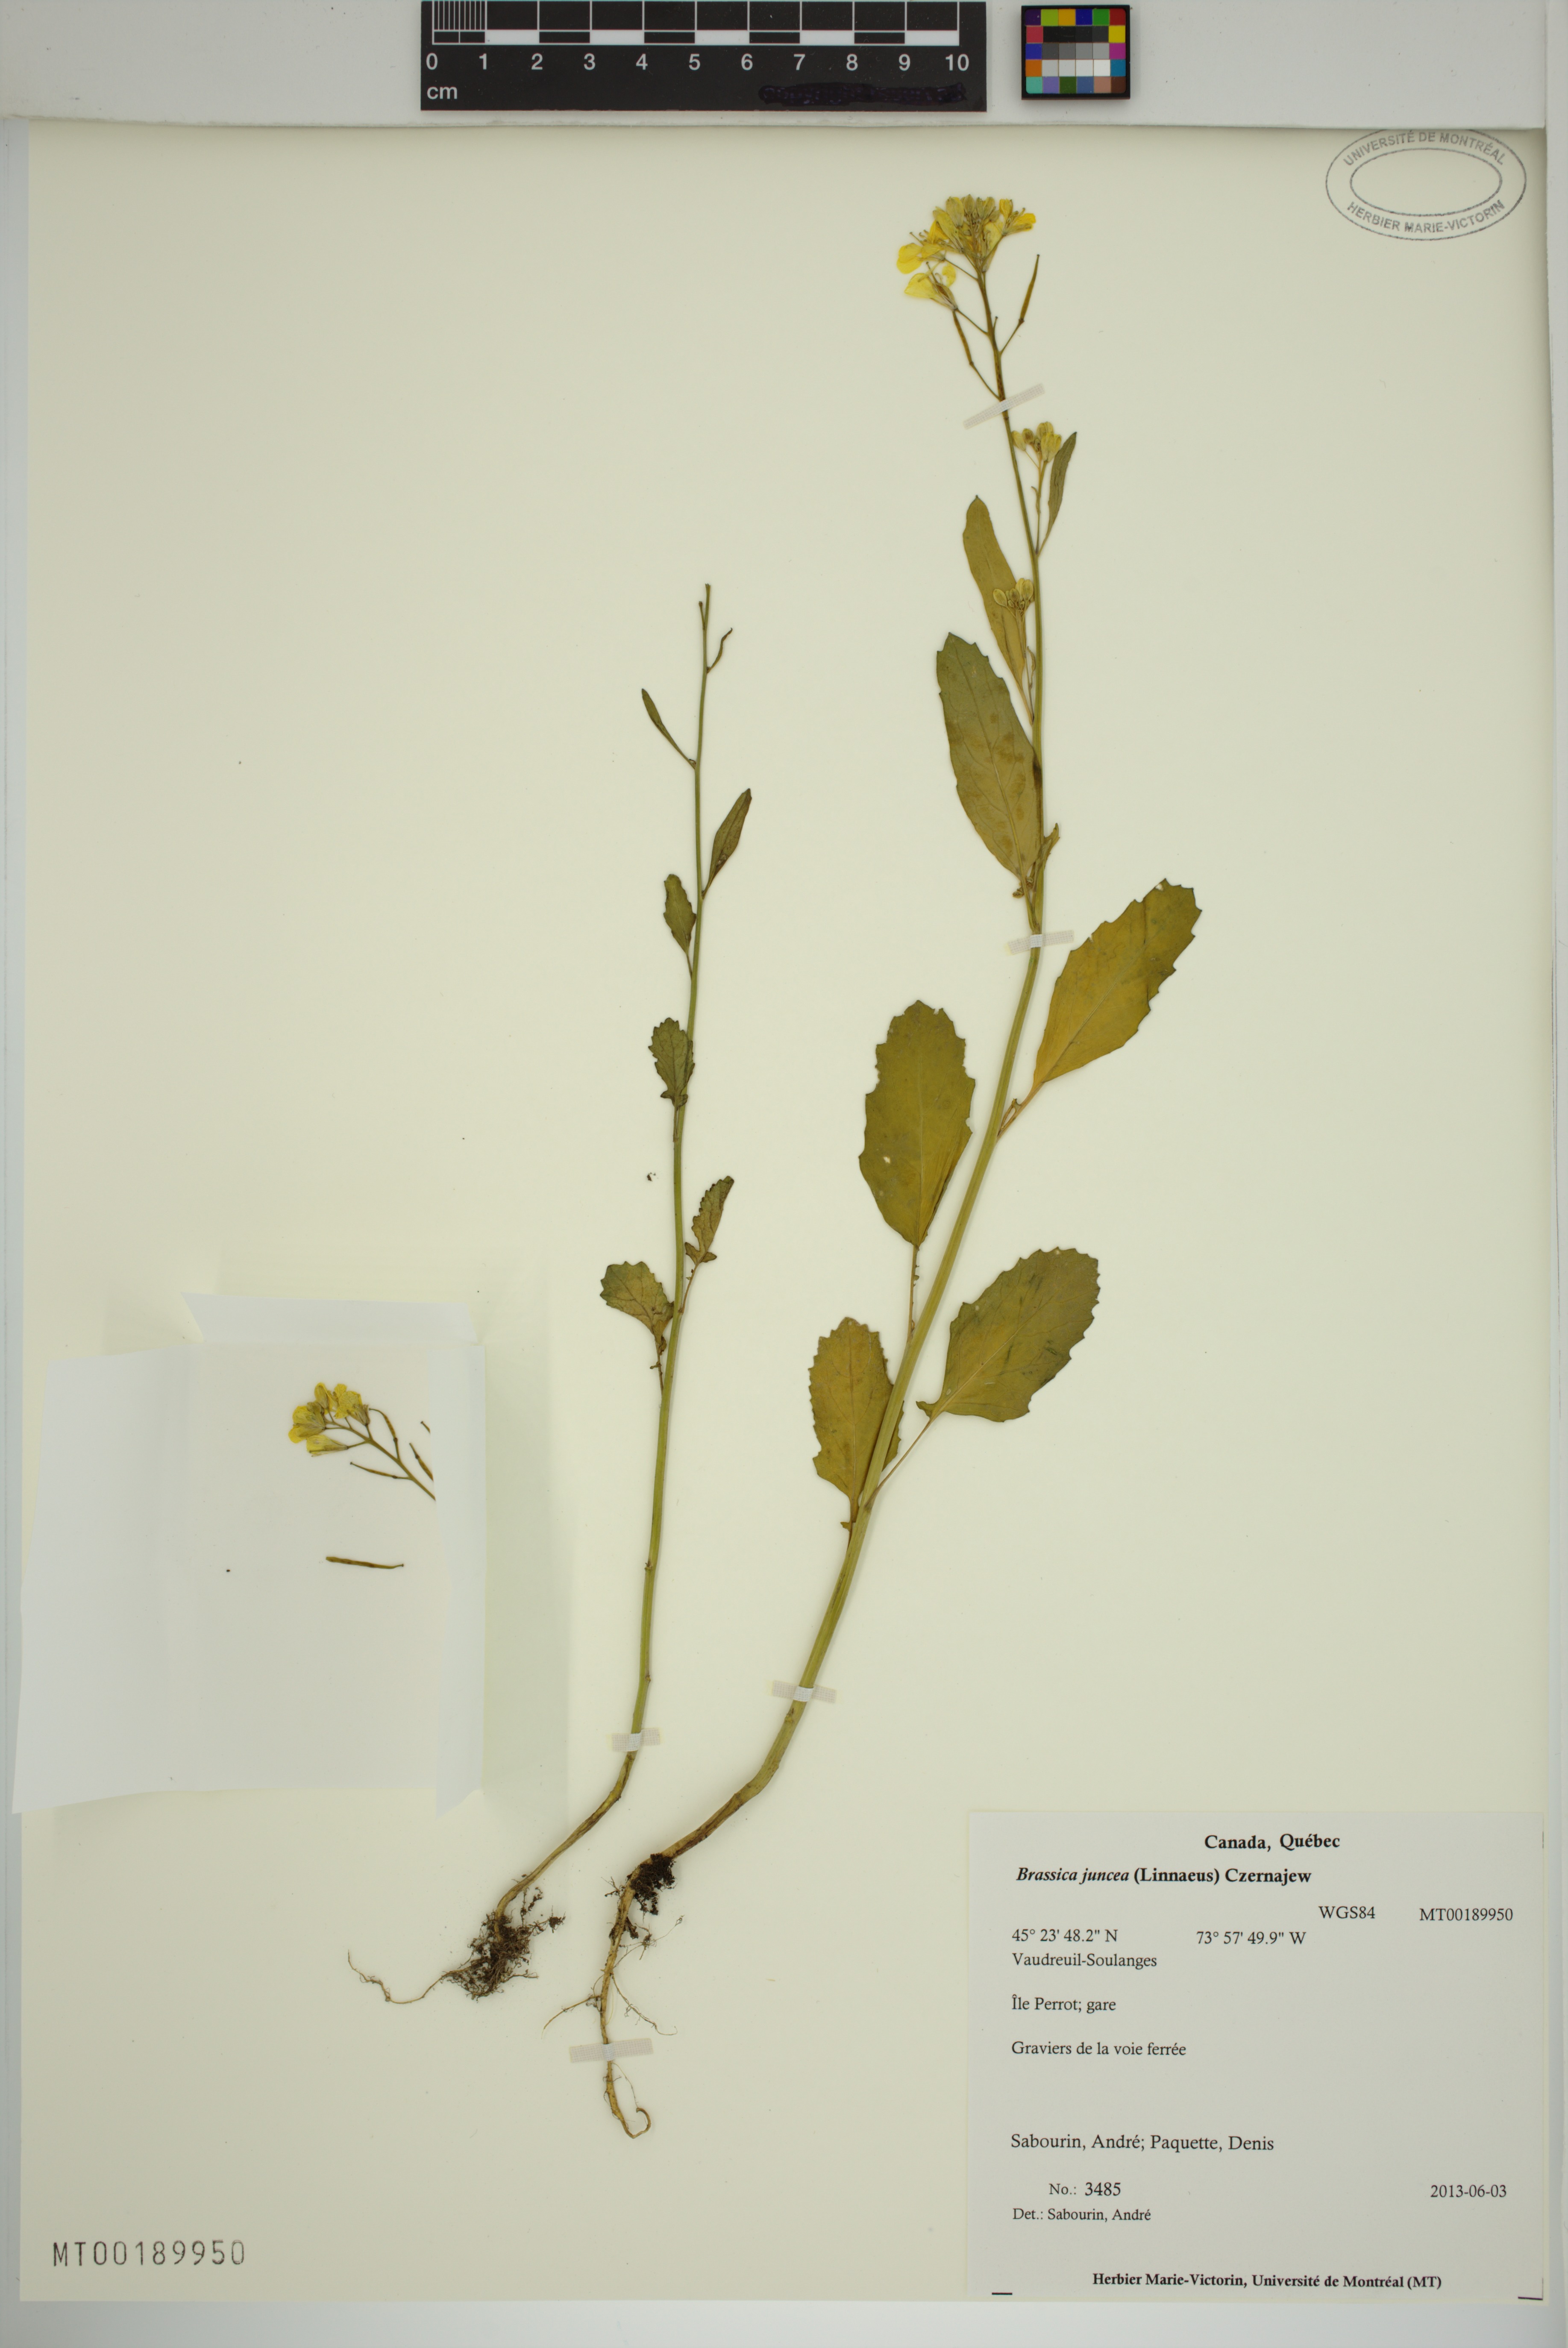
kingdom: Plantae
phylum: Tracheophyta
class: Magnoliopsida
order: Brassicales
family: Brassicaceae
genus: Brassica
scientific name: Brassica juncea
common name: Brown mustard
